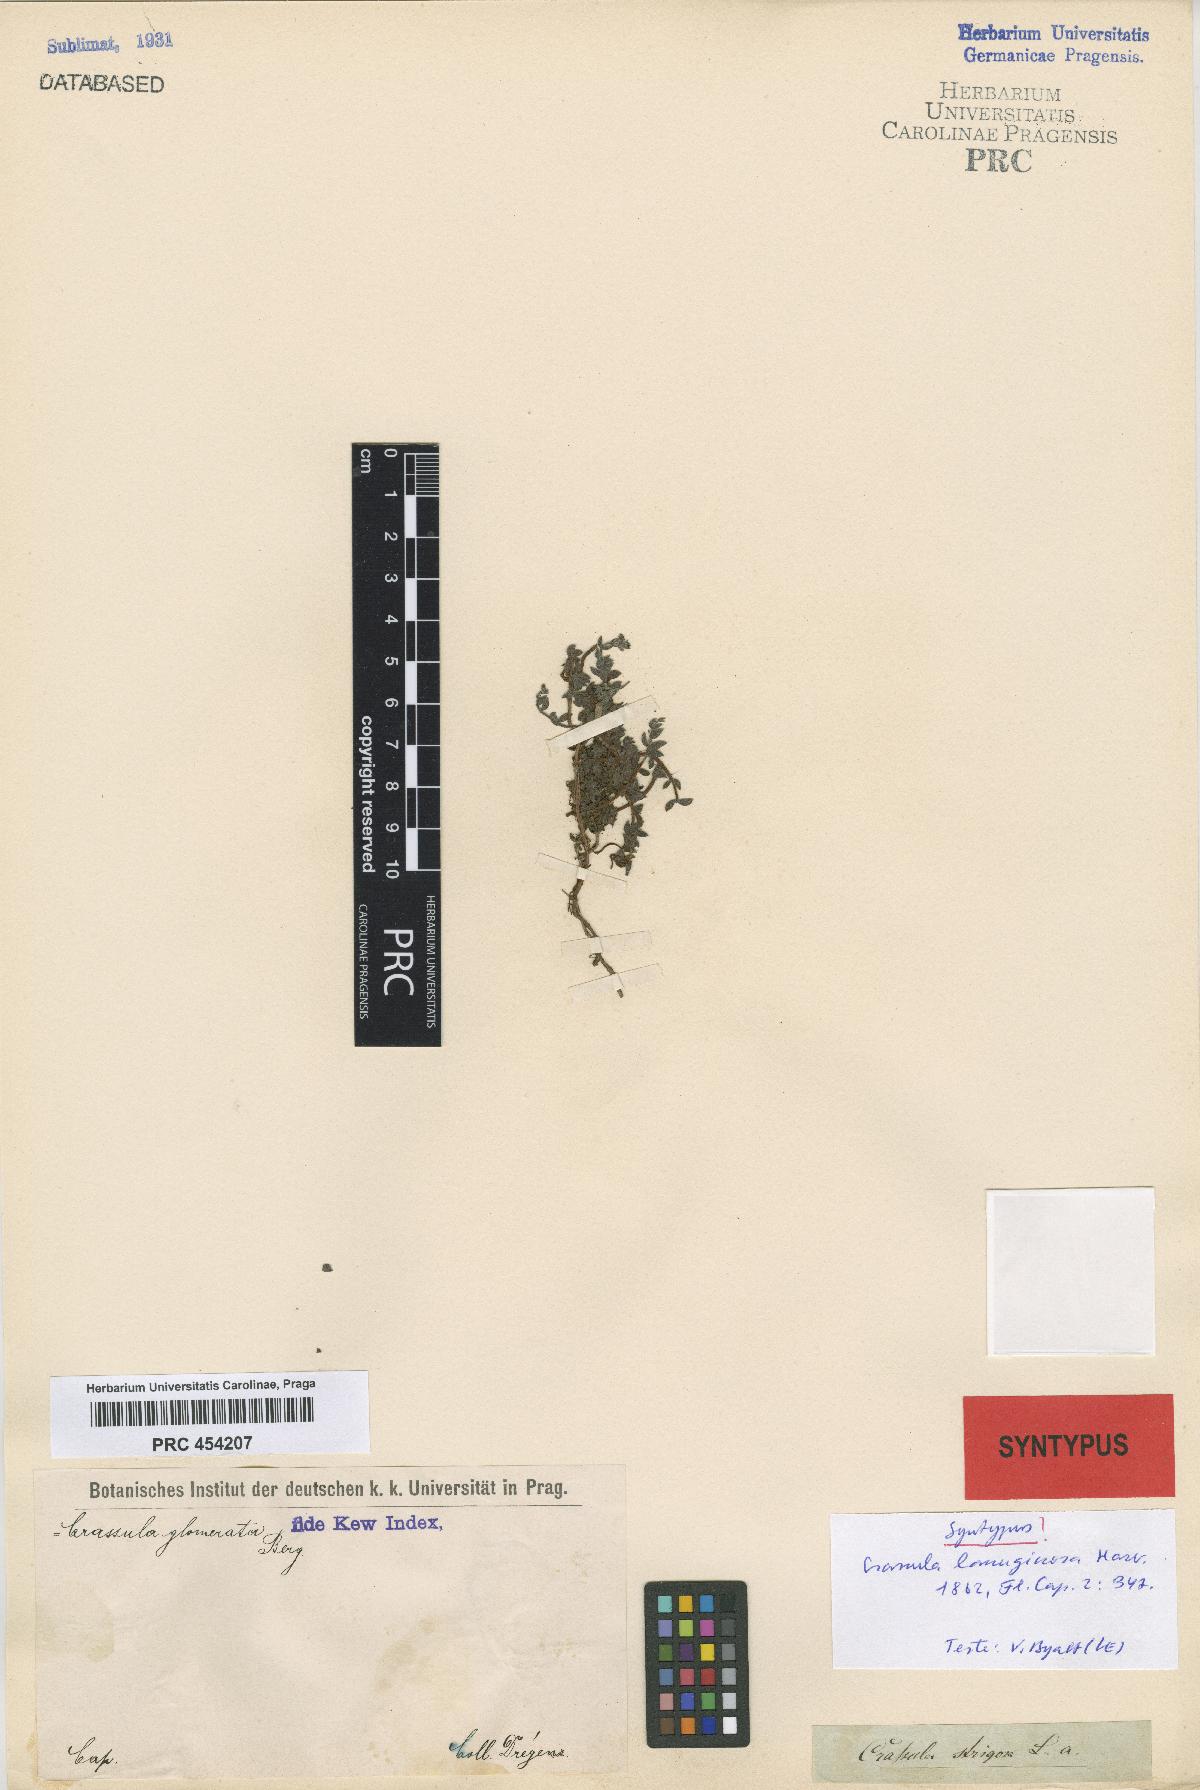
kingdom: Plantae
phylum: Tracheophyta
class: Magnoliopsida
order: Saxifragales
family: Crassulaceae
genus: Crassula
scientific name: Crassula lanuginosa
